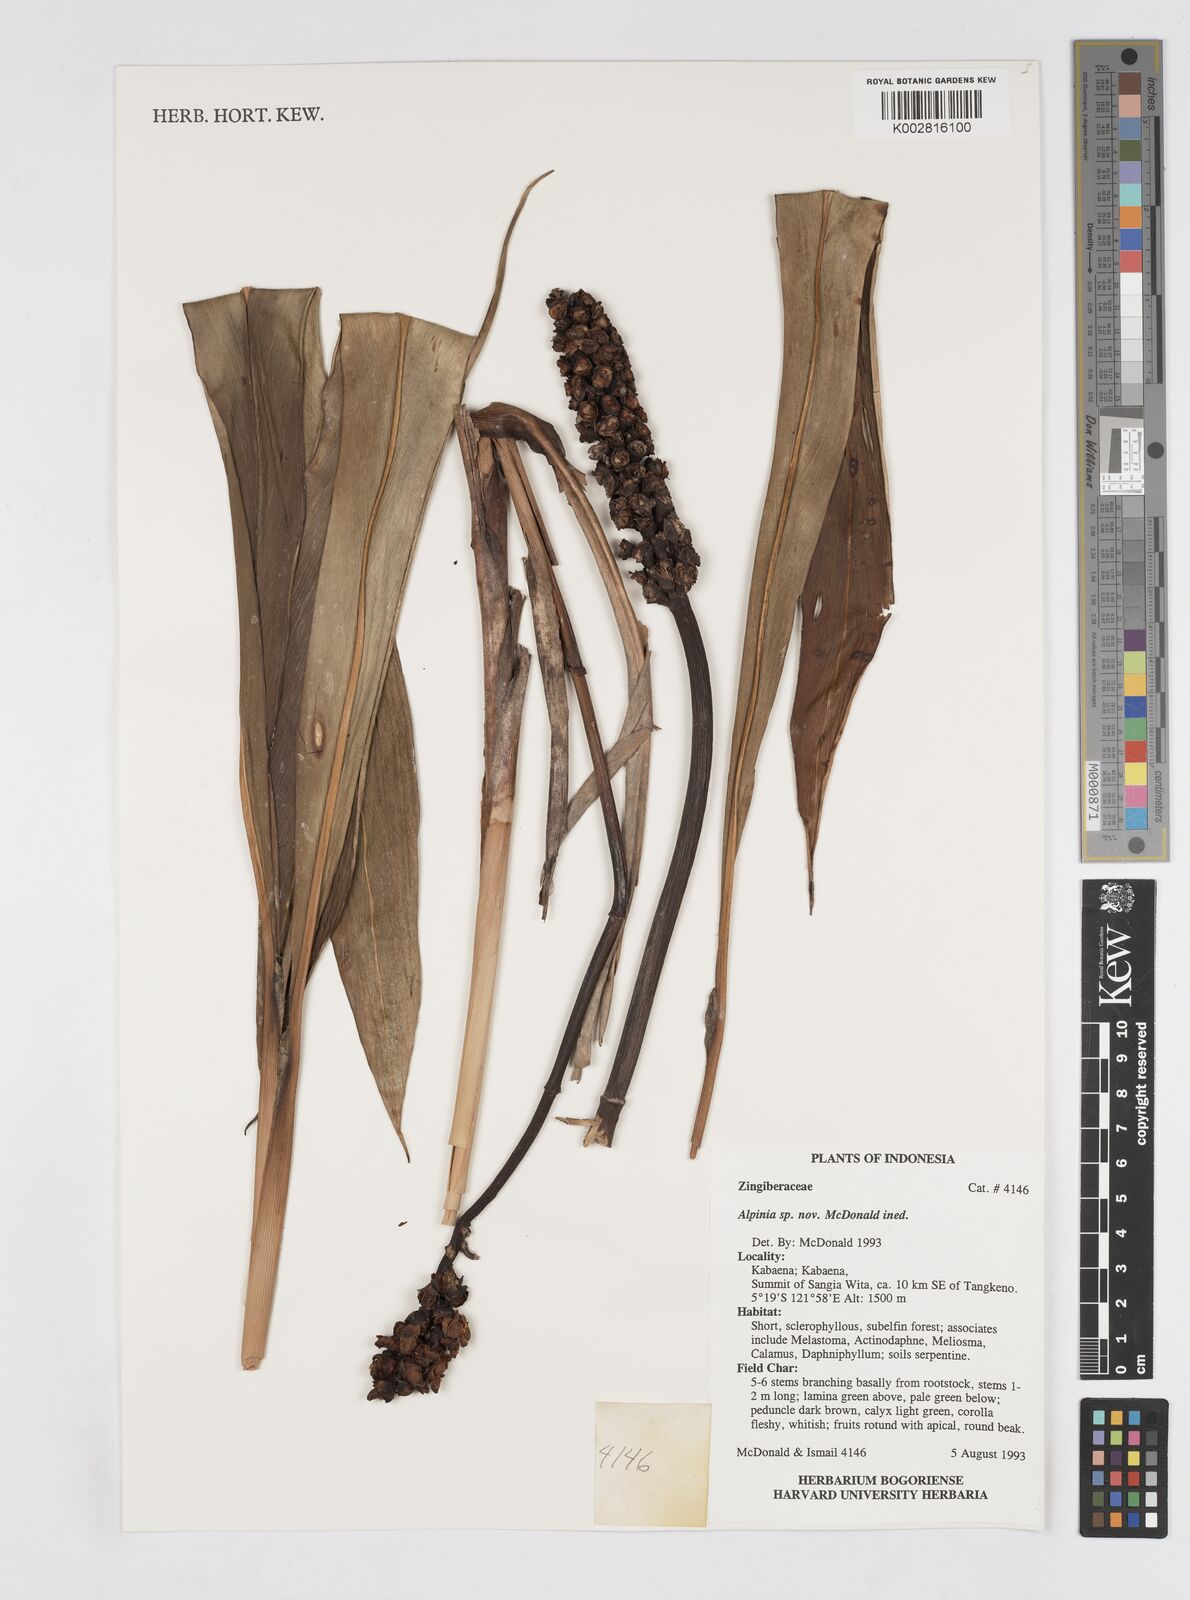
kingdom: Plantae
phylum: Tracheophyta
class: Liliopsida
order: Zingiberales
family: Zingiberaceae
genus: Alpinia
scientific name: Alpinia
